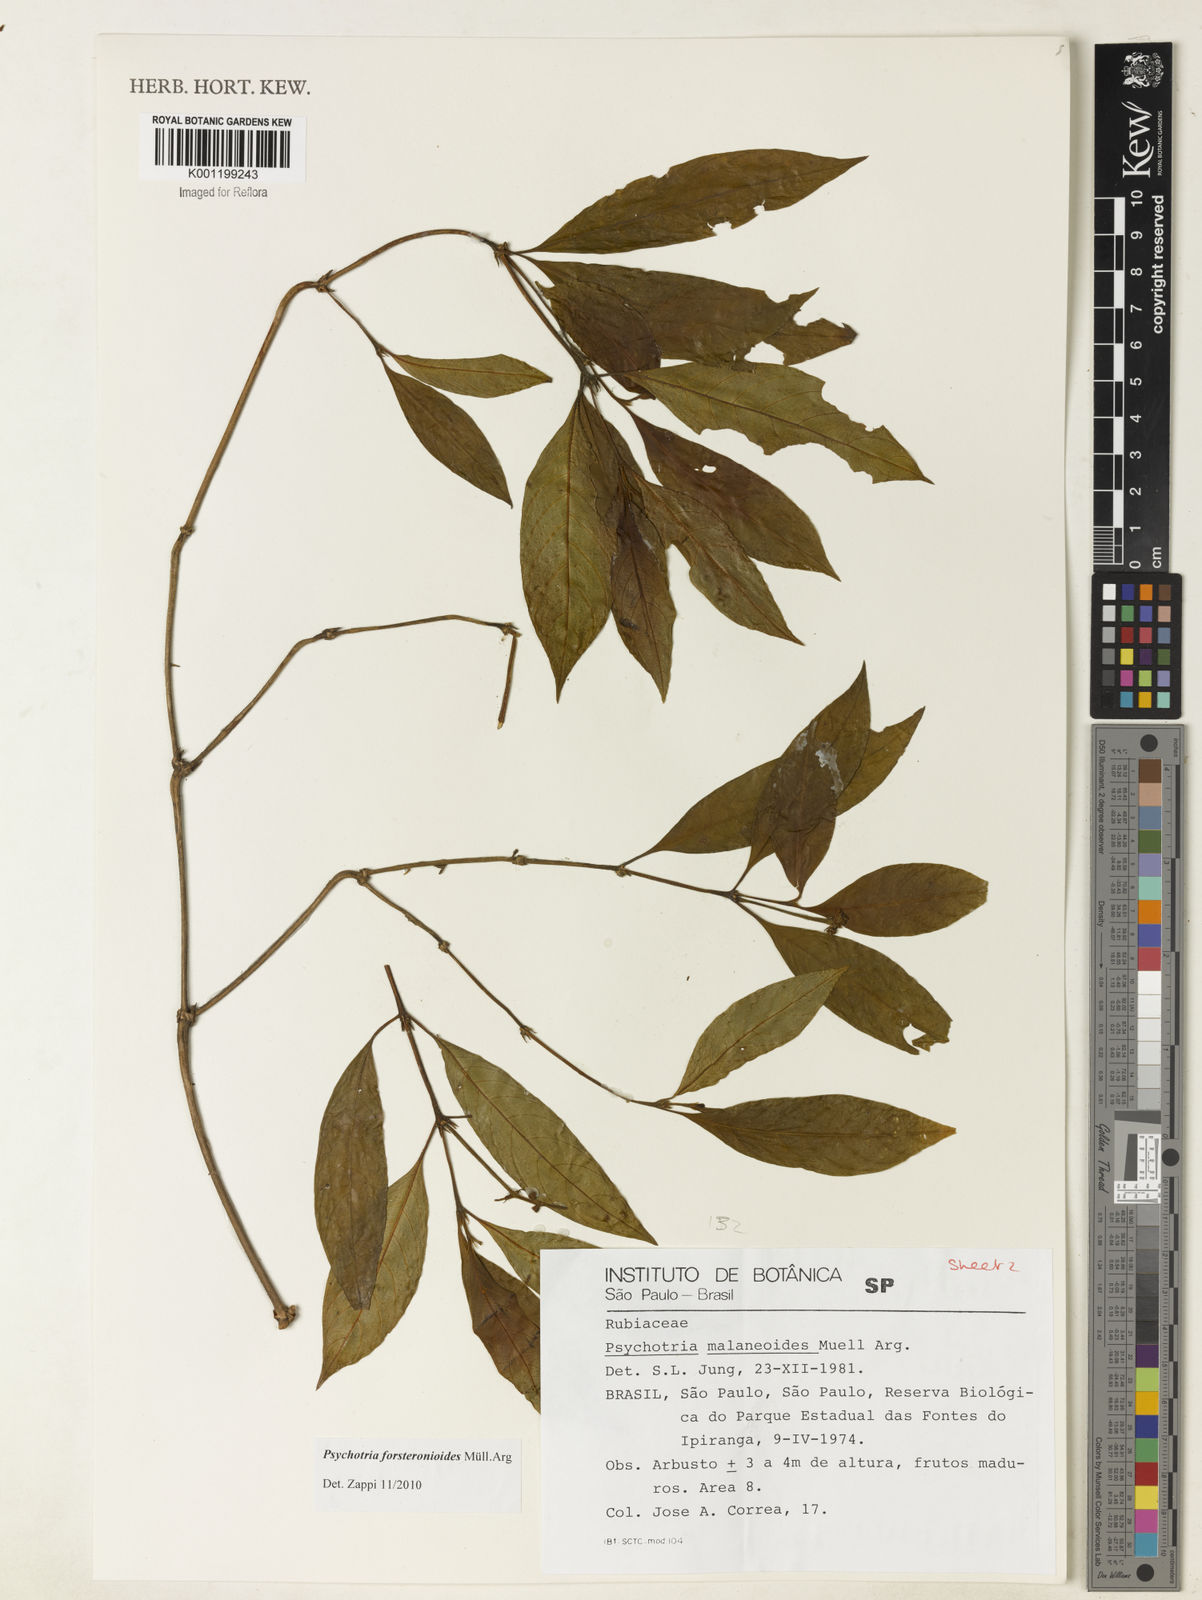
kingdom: Plantae
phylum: Tracheophyta
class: Magnoliopsida
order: Gentianales
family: Rubiaceae
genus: Psychotria
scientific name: Psychotria
